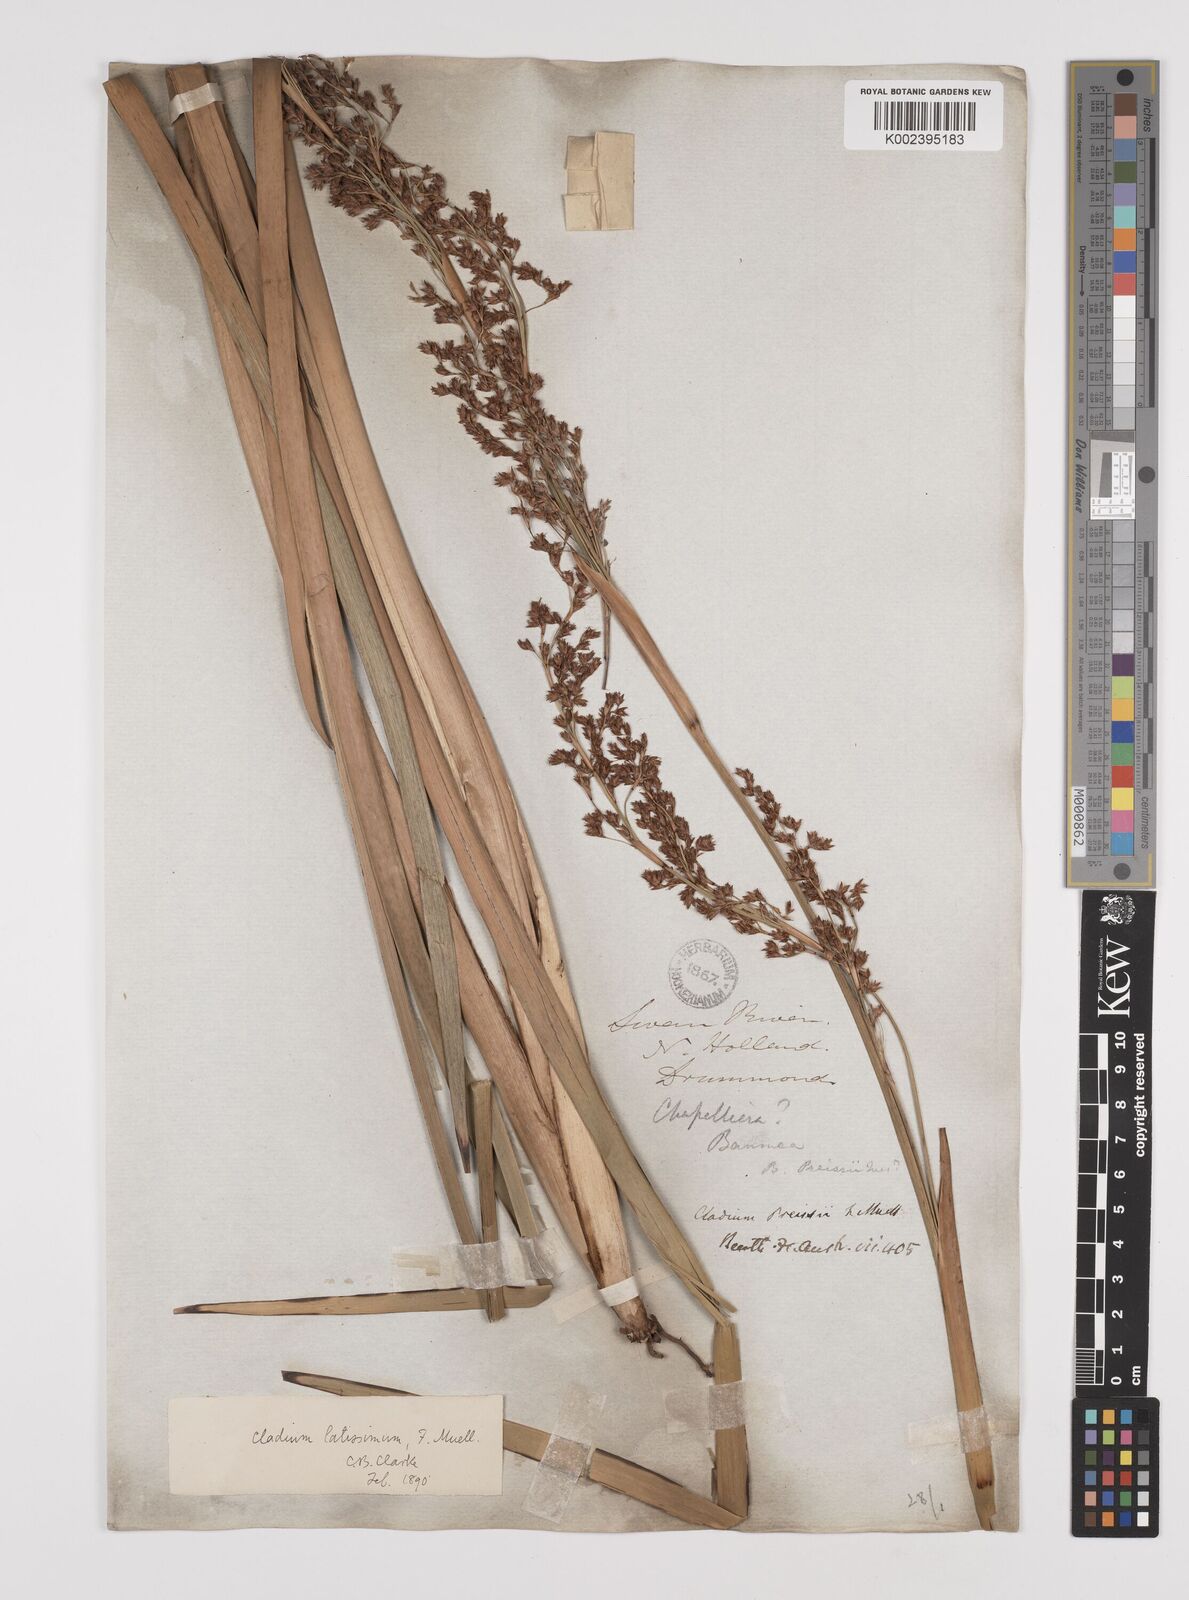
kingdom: Plantae
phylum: Tracheophyta
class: Liliopsida
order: Poales
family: Cyperaceae
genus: Machaerina
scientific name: Machaerina preissii
